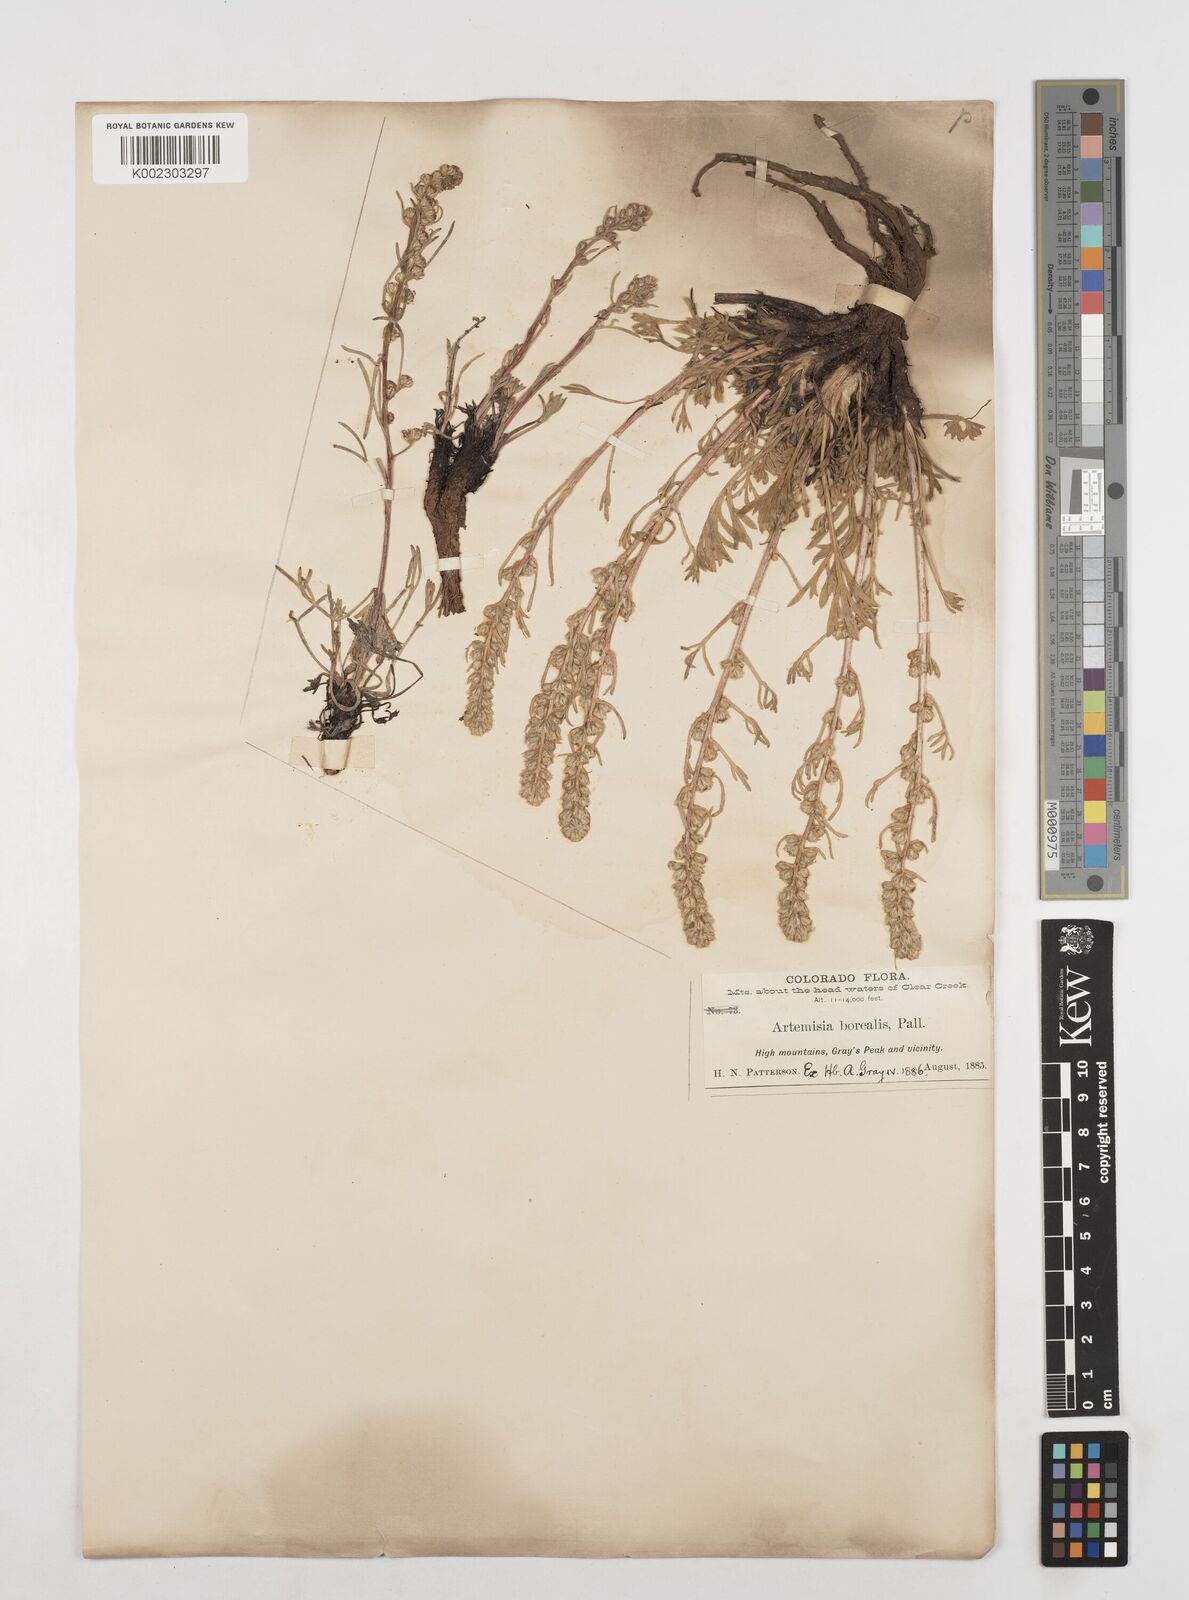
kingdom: Plantae
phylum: Tracheophyta
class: Magnoliopsida
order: Asterales
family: Asteraceae
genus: Artemisia
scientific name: Artemisia borealis
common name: Boreal sage
